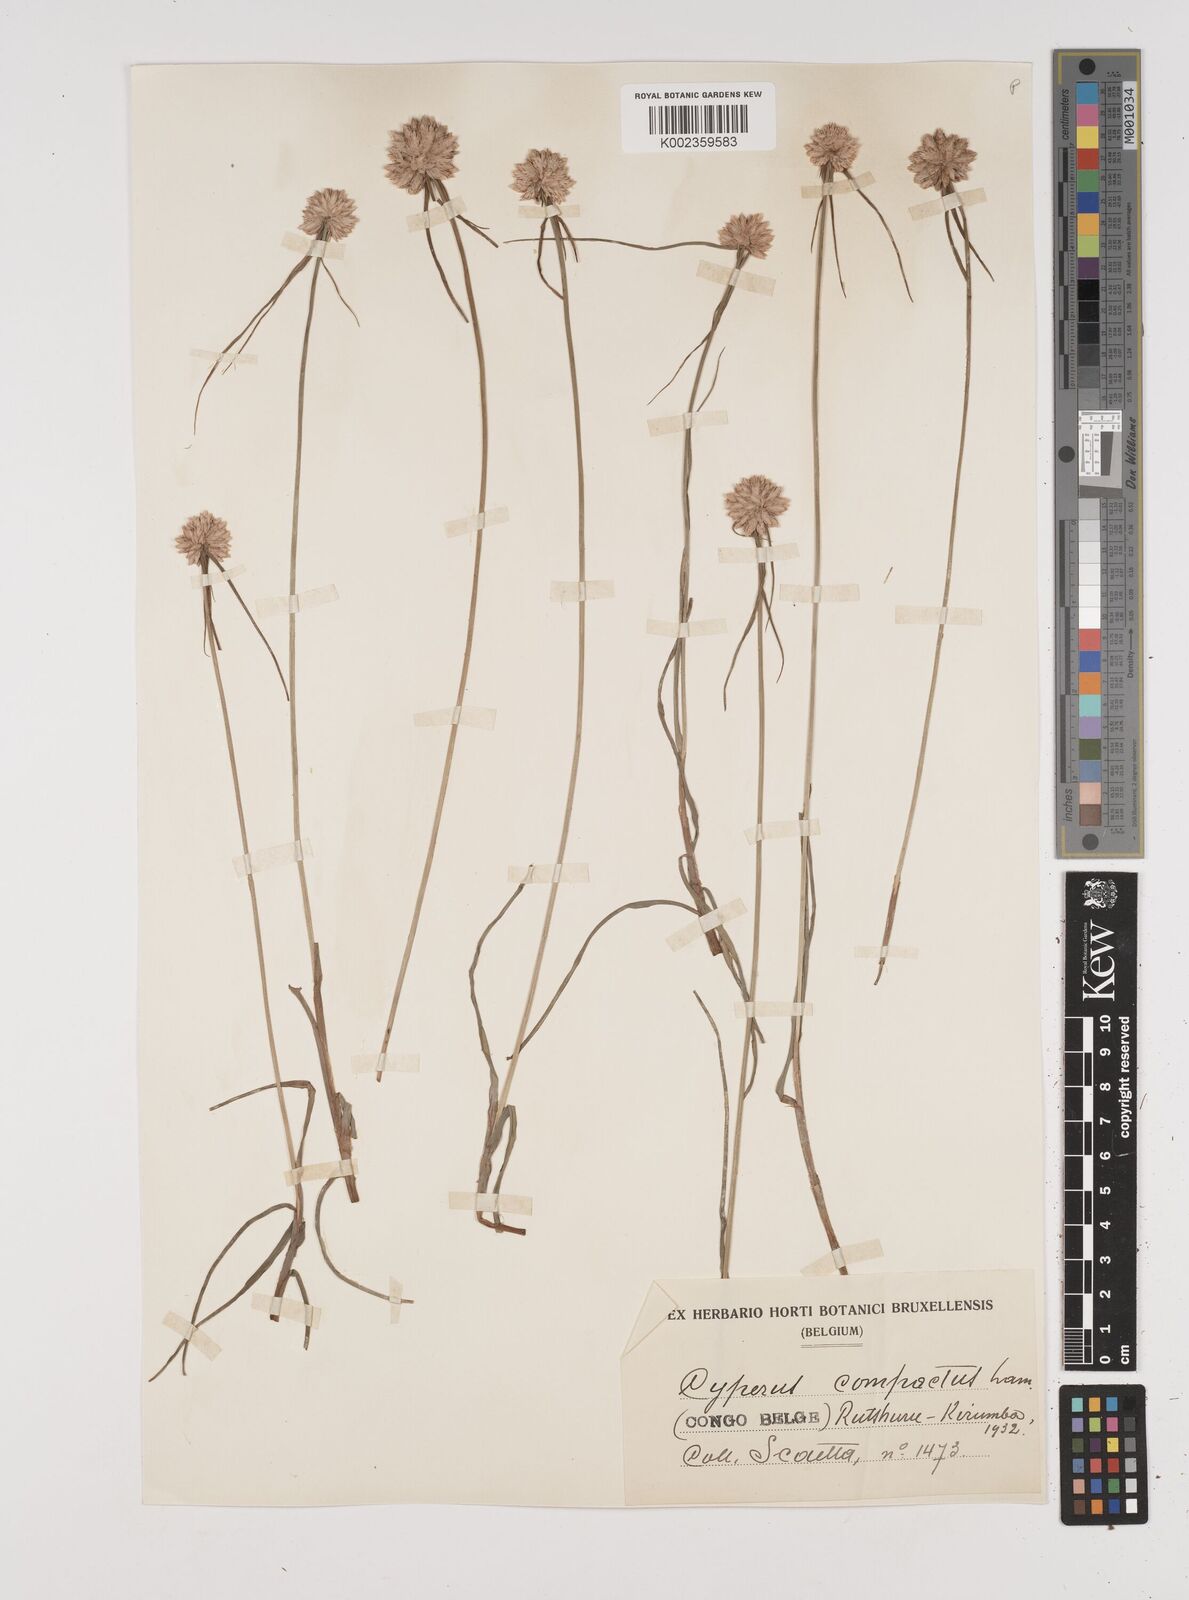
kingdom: Plantae
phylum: Tracheophyta
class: Liliopsida
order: Poales
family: Cyperaceae
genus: Cyperus
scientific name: Cyperus niveus
